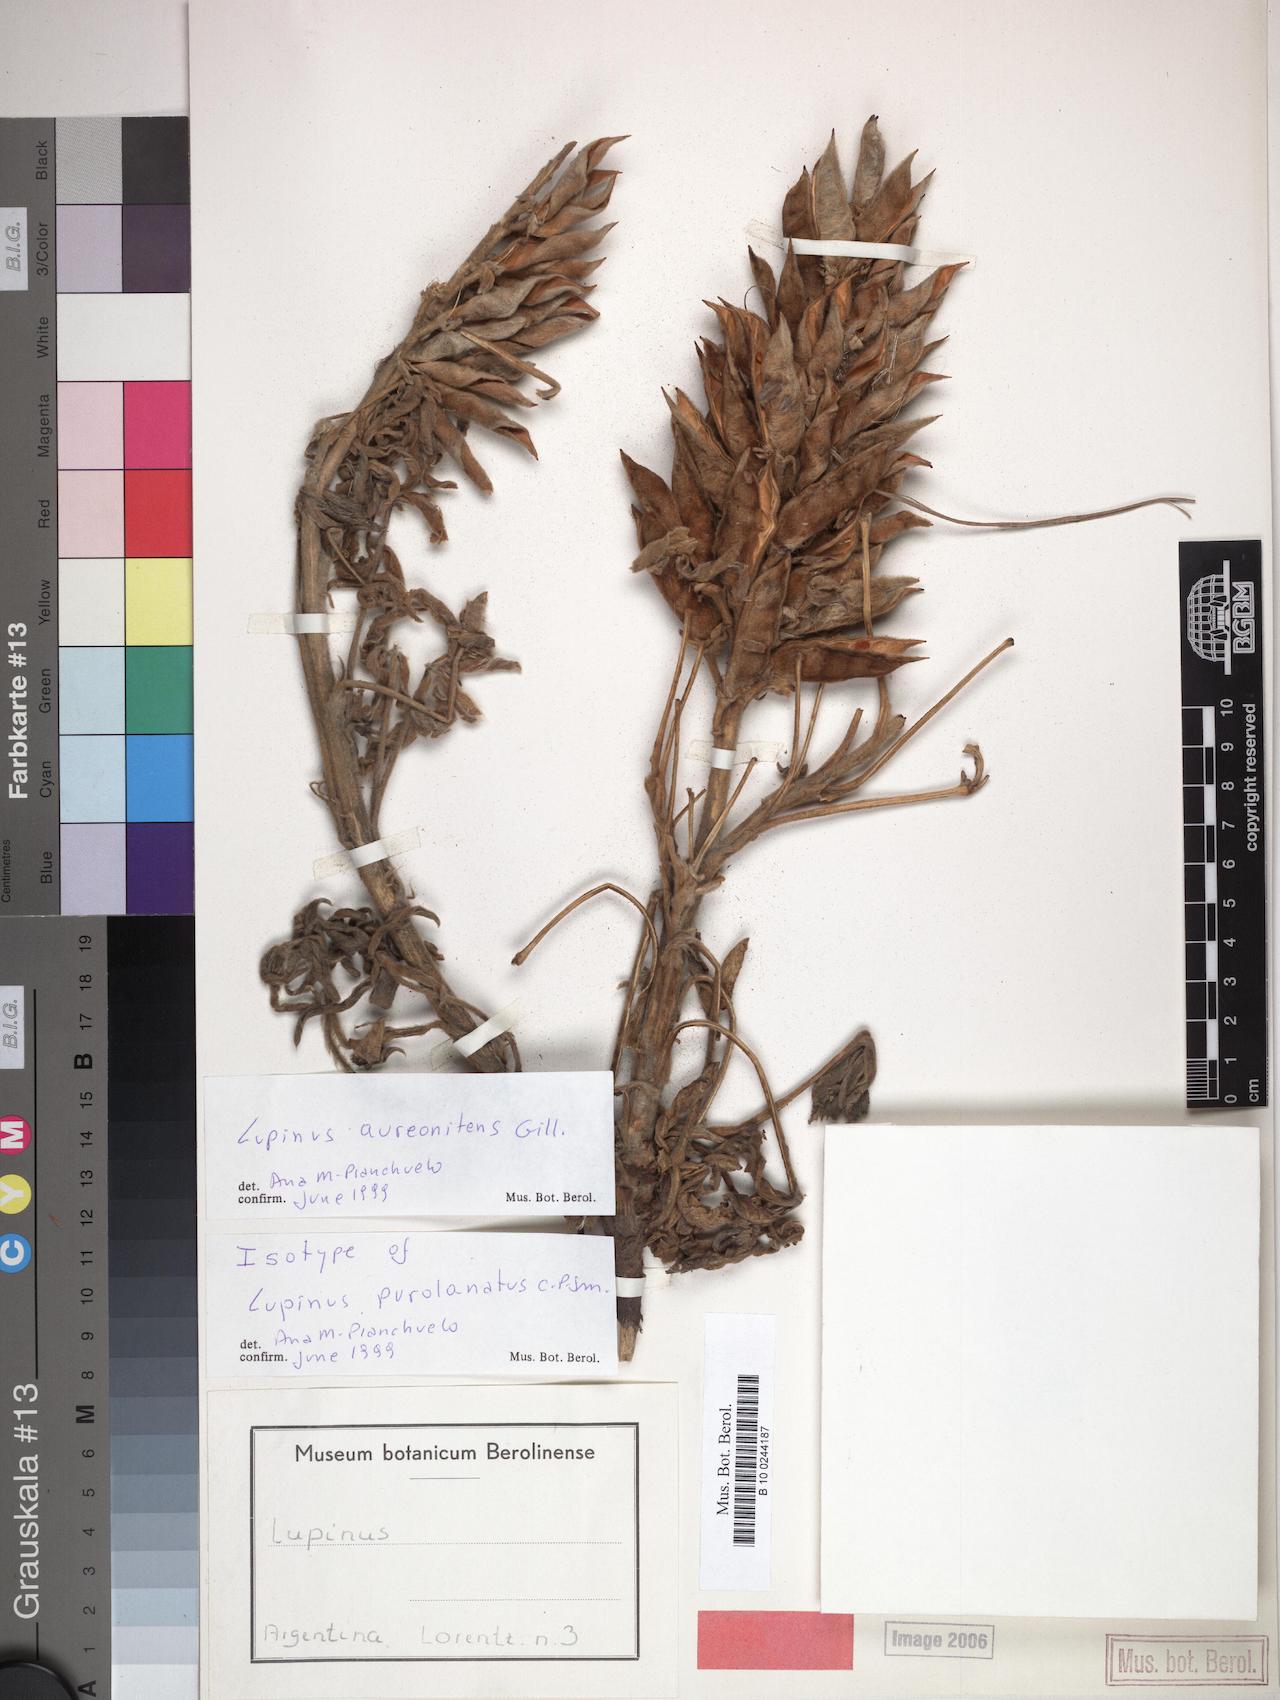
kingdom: Plantae
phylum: Tracheophyta
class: Magnoliopsida
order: Fabales
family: Fabaceae
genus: Lupinus
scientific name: Lupinus aureonitens
